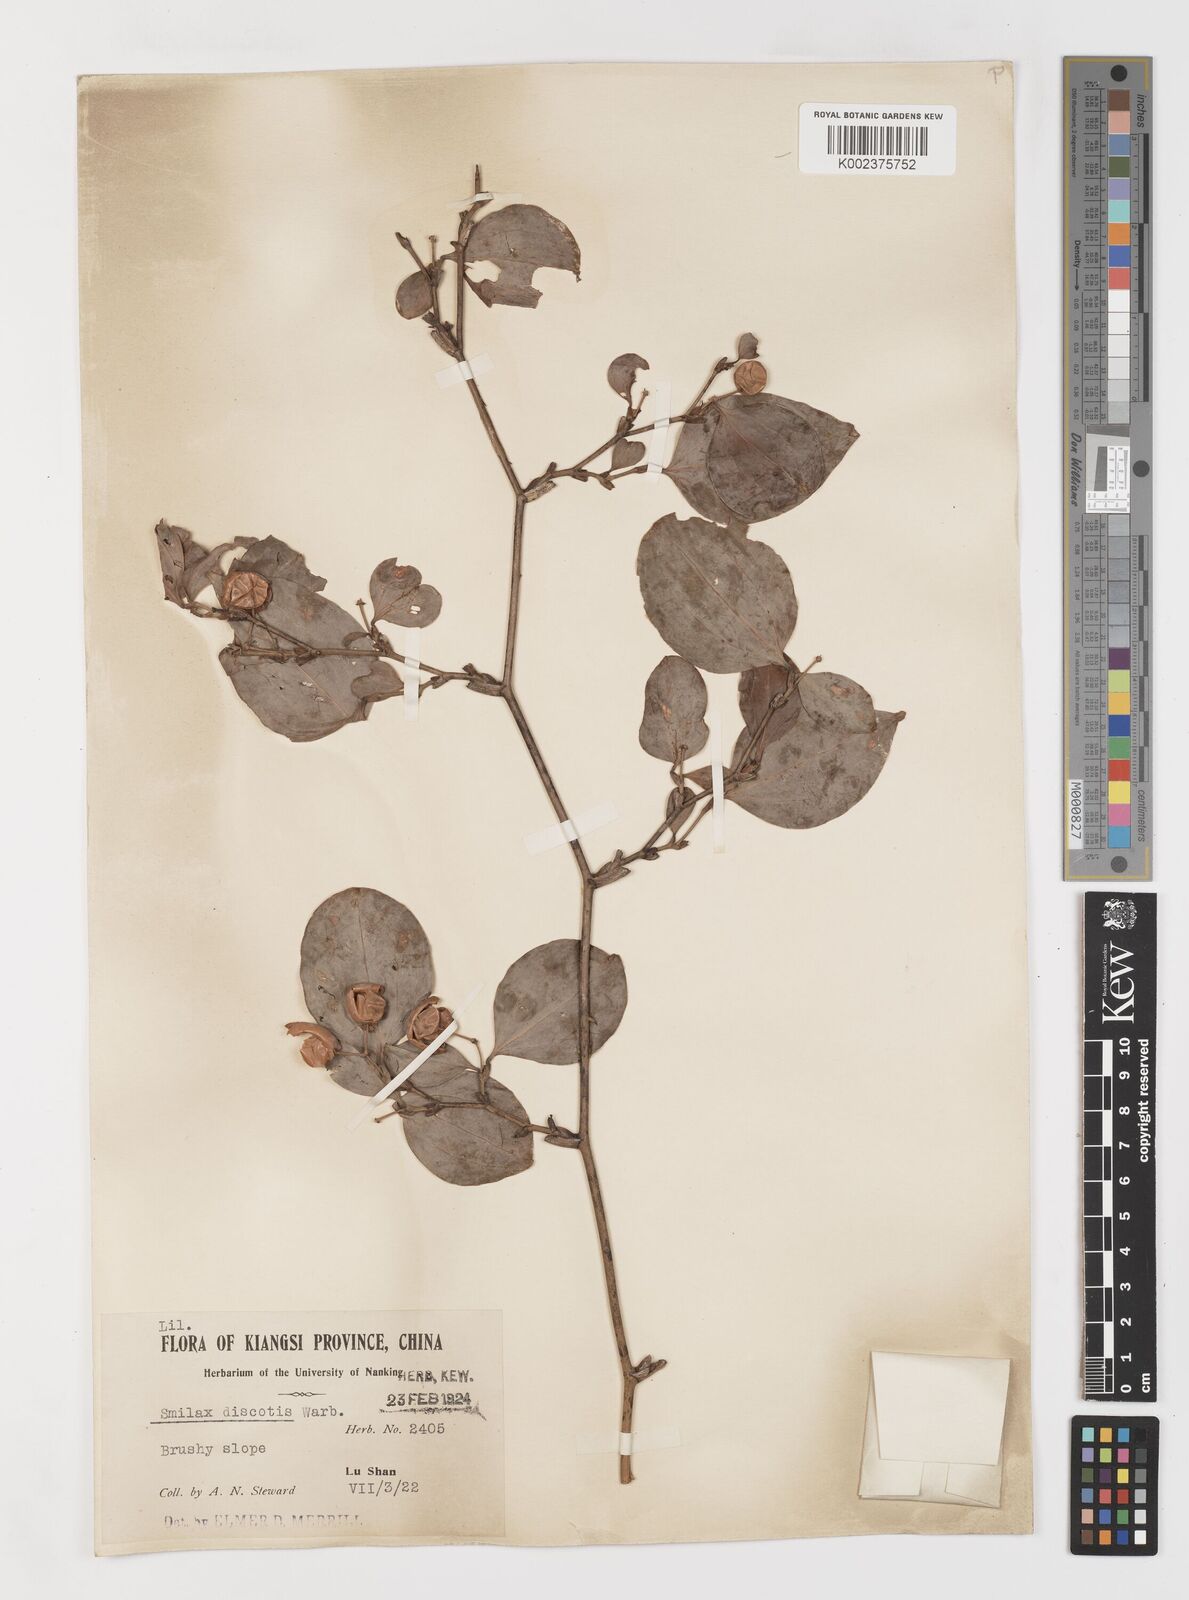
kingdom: Plantae
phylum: Tracheophyta
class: Liliopsida
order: Liliales
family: Smilacaceae
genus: Smilax
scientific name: Smilax china
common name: Chinaroot
